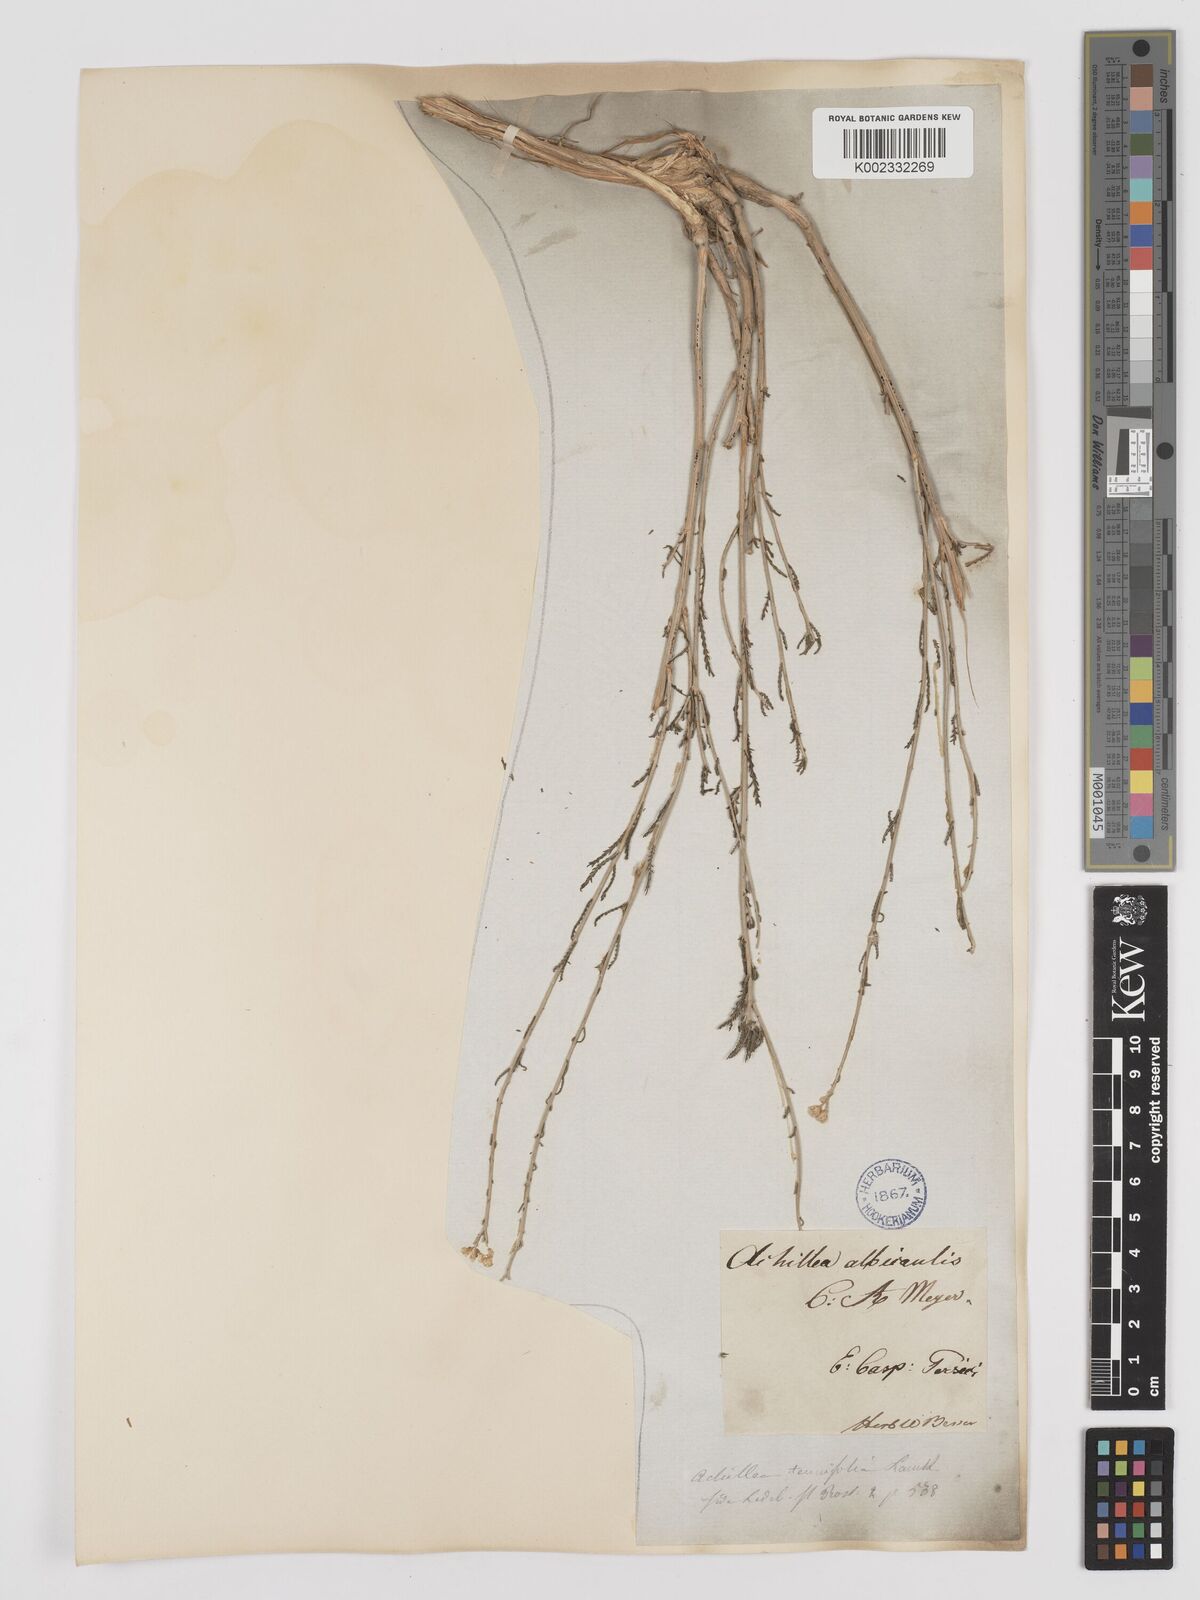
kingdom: Plantae
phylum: Tracheophyta
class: Magnoliopsida
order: Asterales
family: Asteraceae
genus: Achillea
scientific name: Achillea tenuifolia
